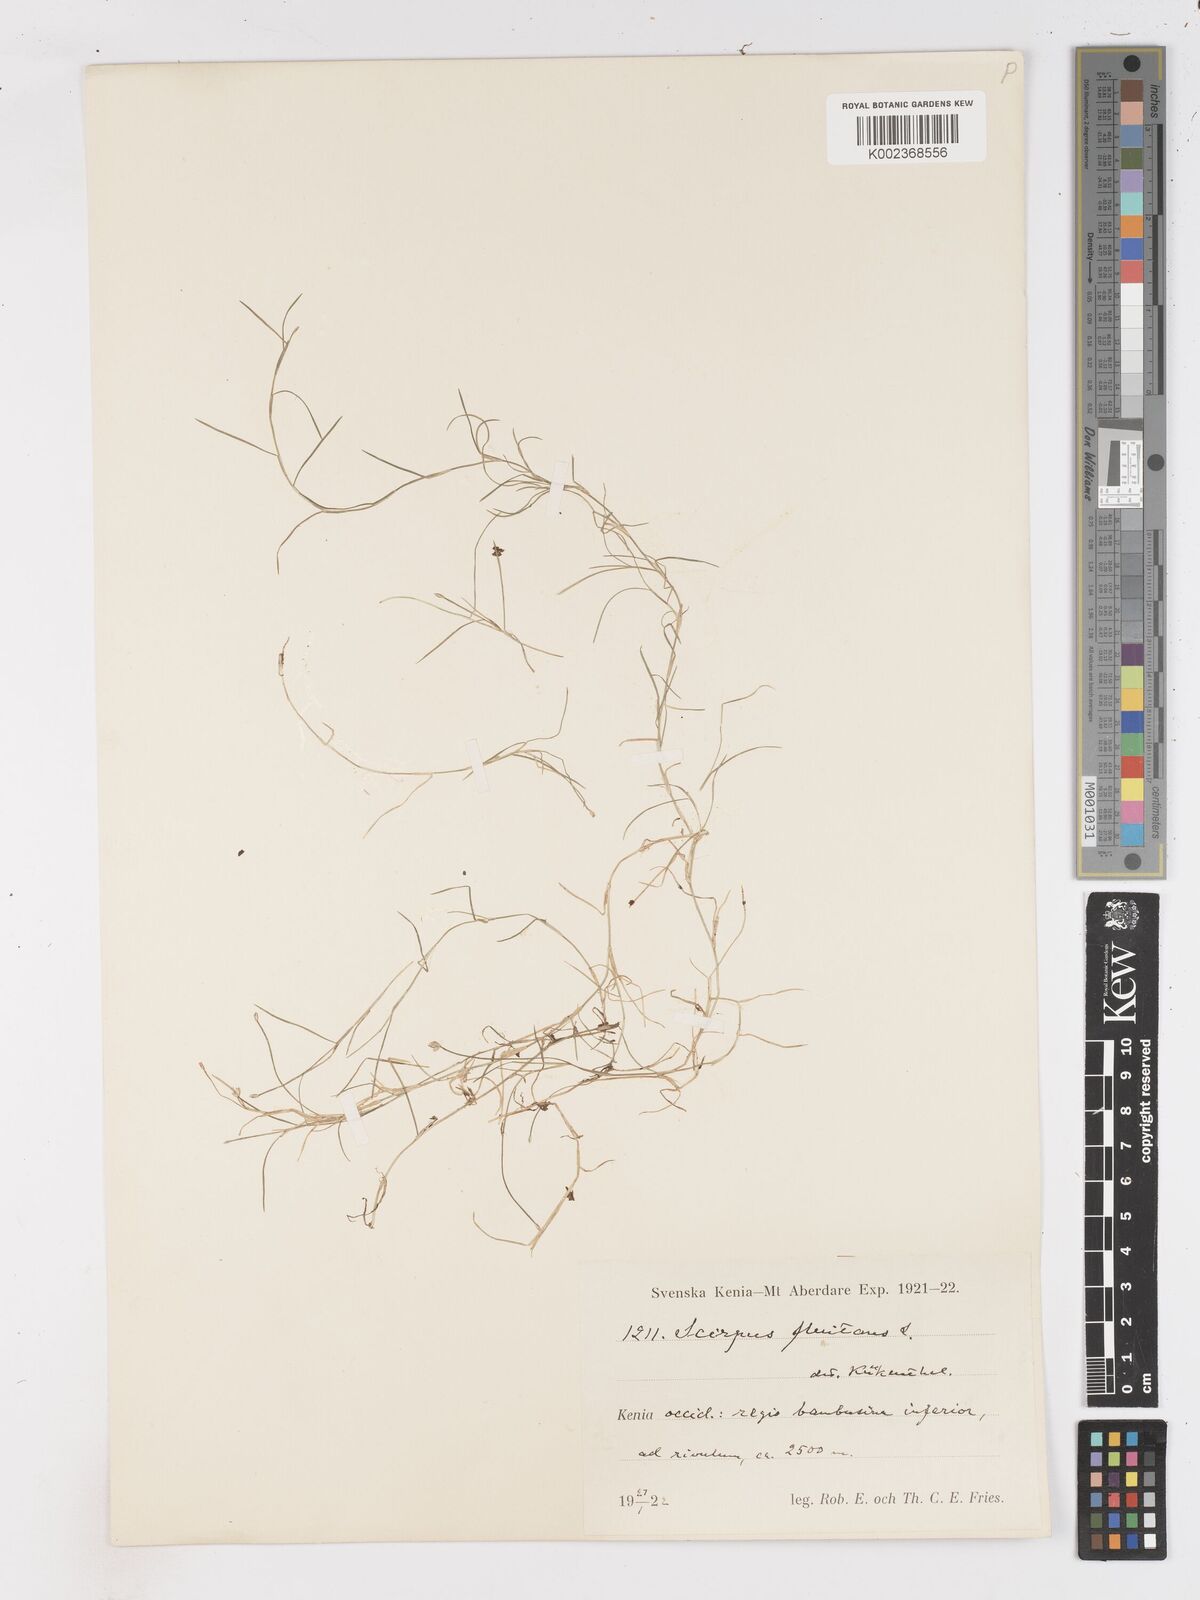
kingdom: Plantae
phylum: Tracheophyta
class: Liliopsida
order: Poales
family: Cyperaceae
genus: Isolepis
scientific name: Isolepis fluitans
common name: Floating club-rush
